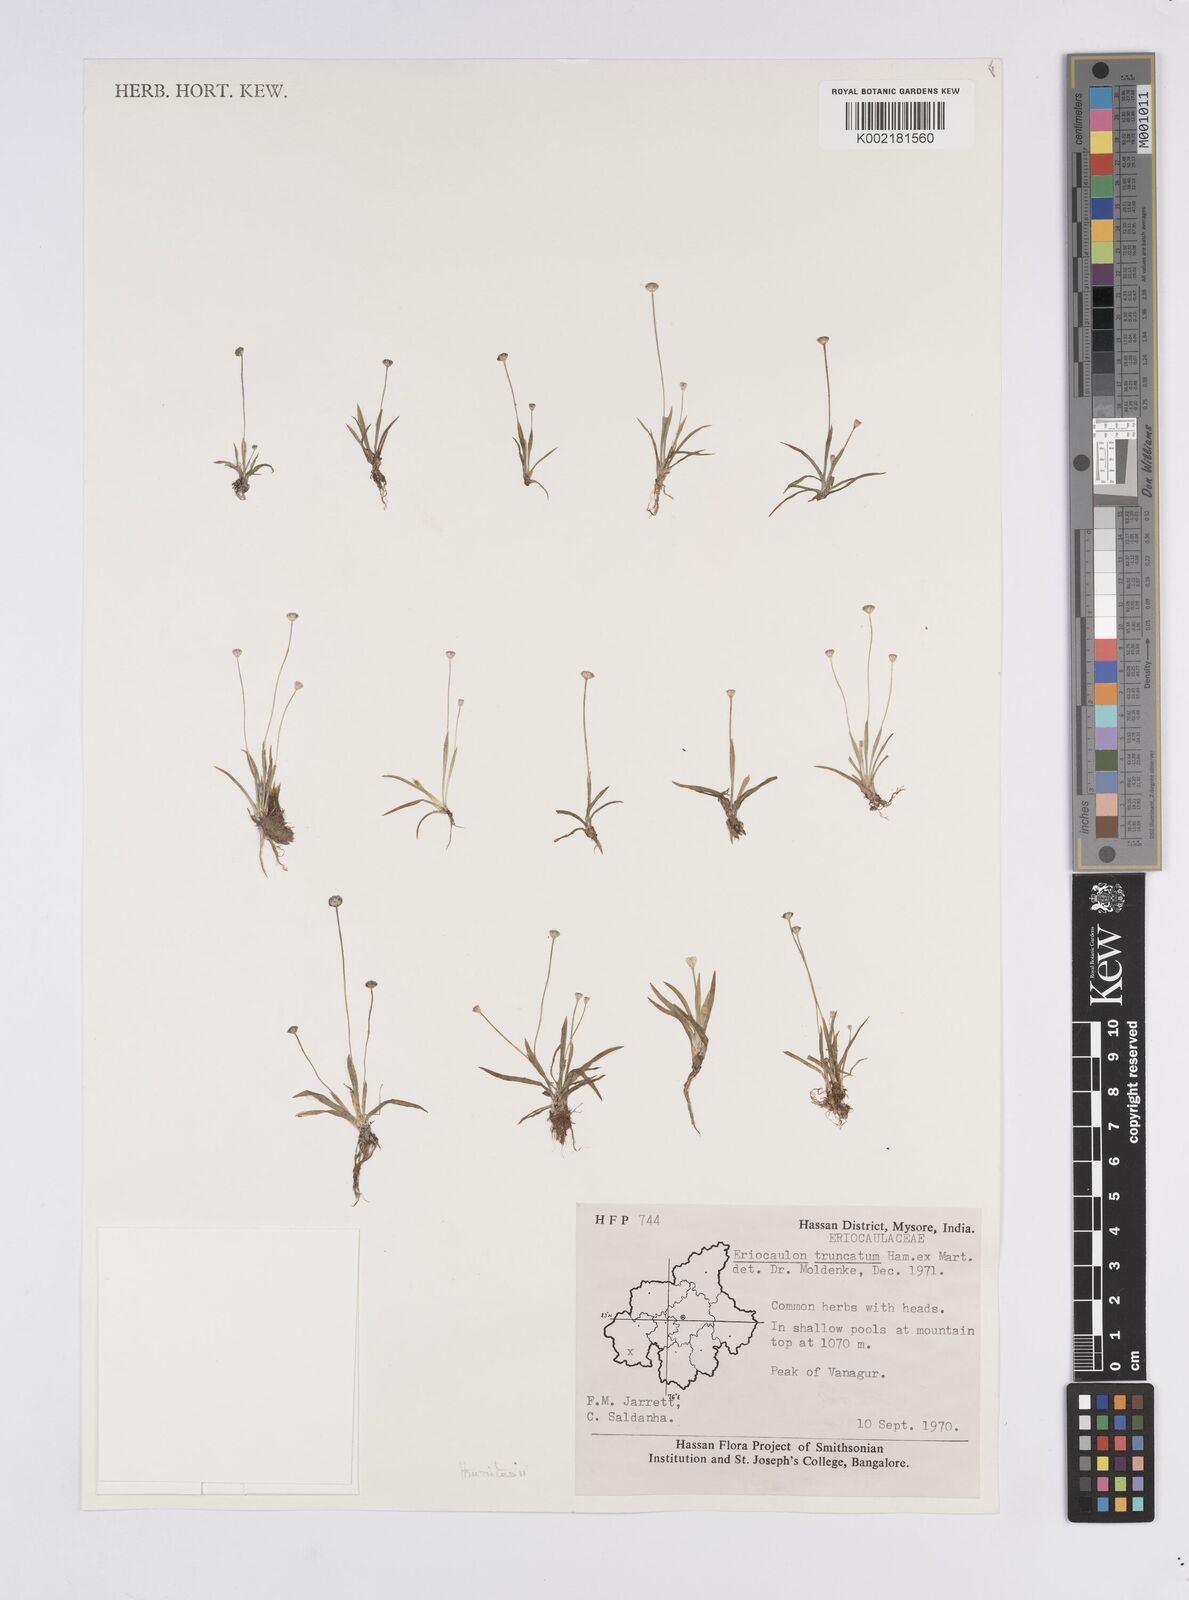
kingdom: Plantae
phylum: Tracheophyta
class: Liliopsida
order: Poales
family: Eriocaulaceae
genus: Eriocaulon
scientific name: Eriocaulon thwaitesii
